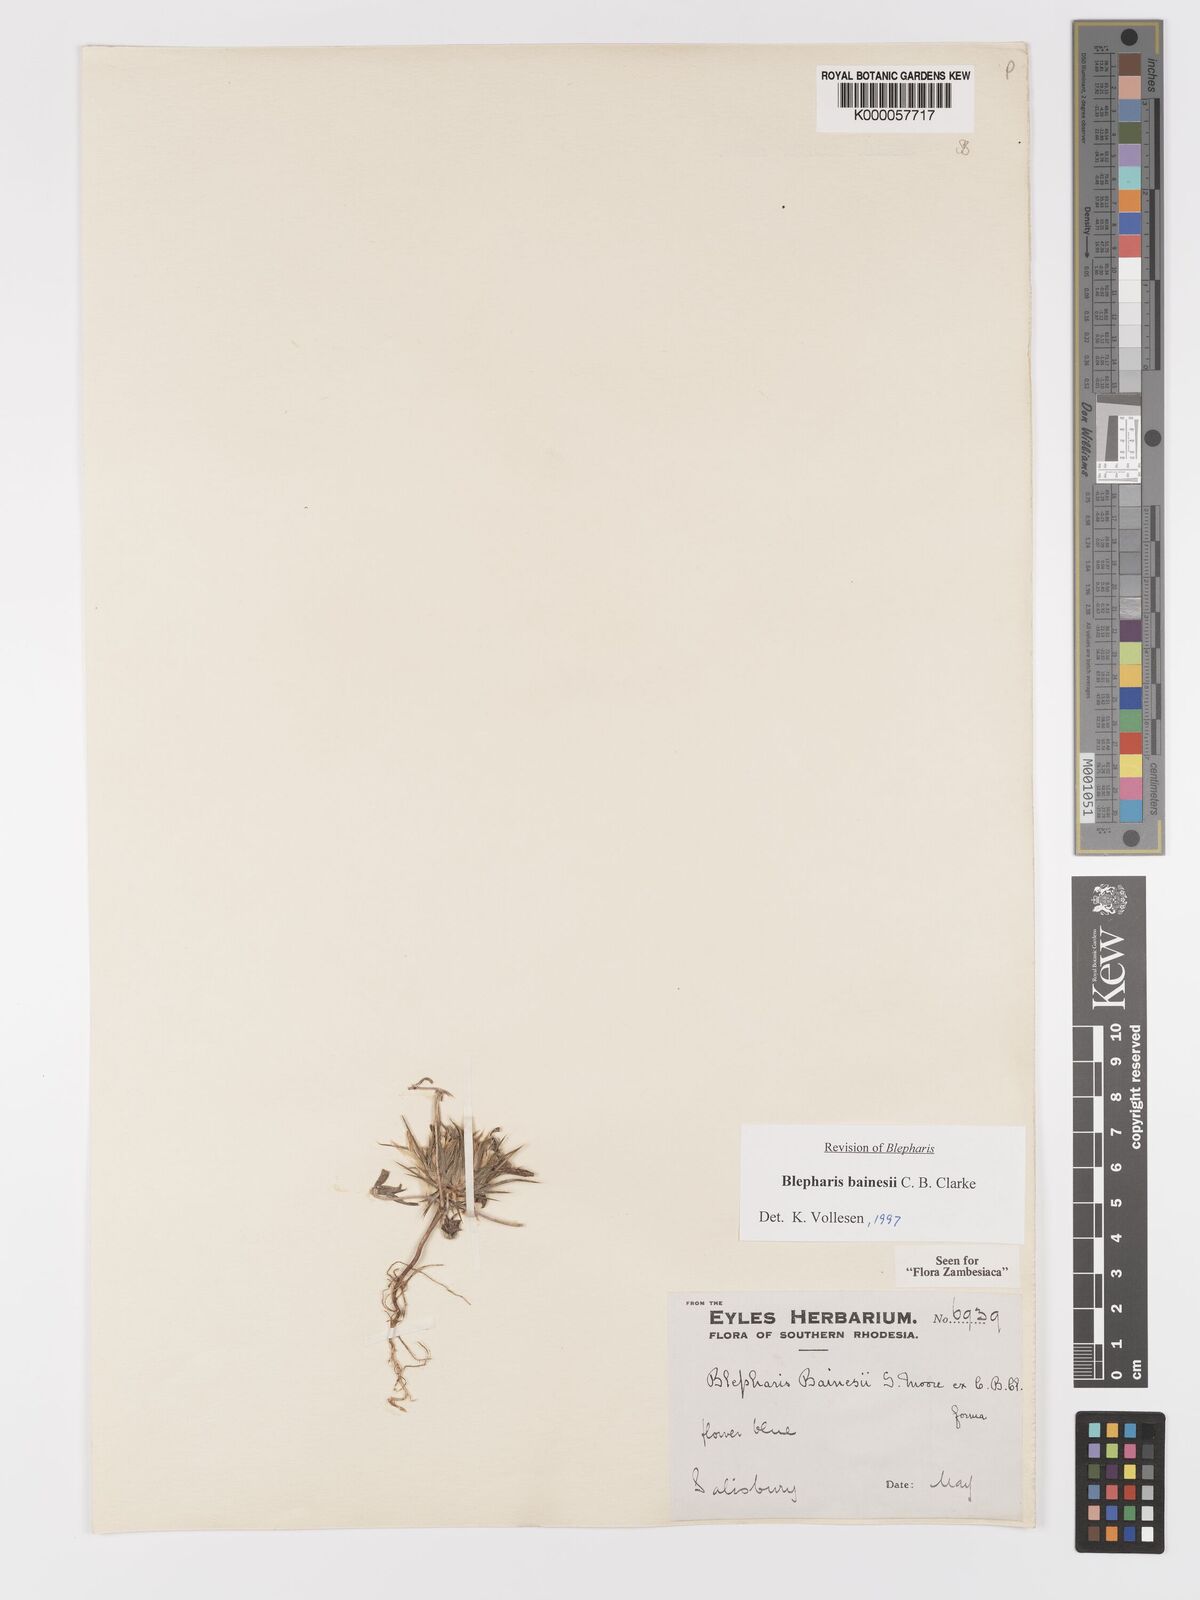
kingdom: Plantae
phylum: Tracheophyta
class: Magnoliopsida
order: Lamiales
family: Acanthaceae
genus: Blepharis
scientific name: Blepharis bainesii
